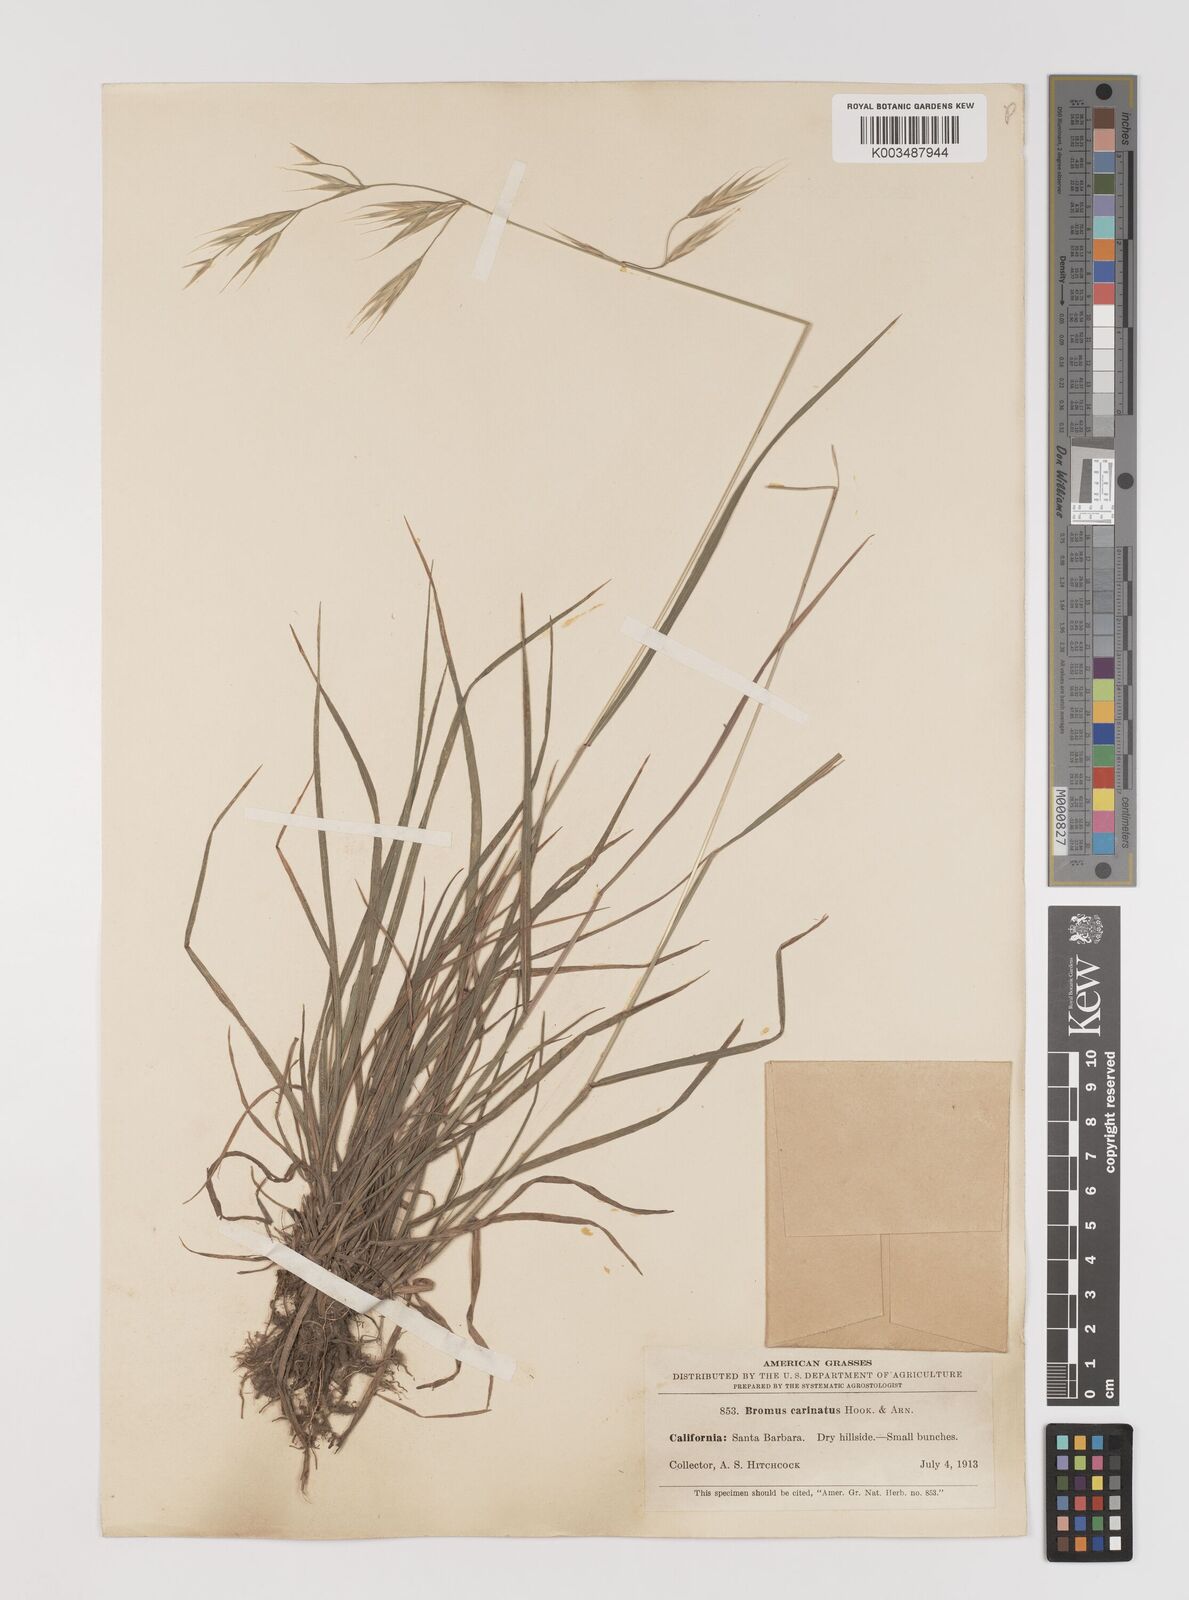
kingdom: Plantae
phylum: Tracheophyta
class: Liliopsida
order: Poales
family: Poaceae
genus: Bromus
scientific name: Bromus carinatus
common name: Mountain brome
